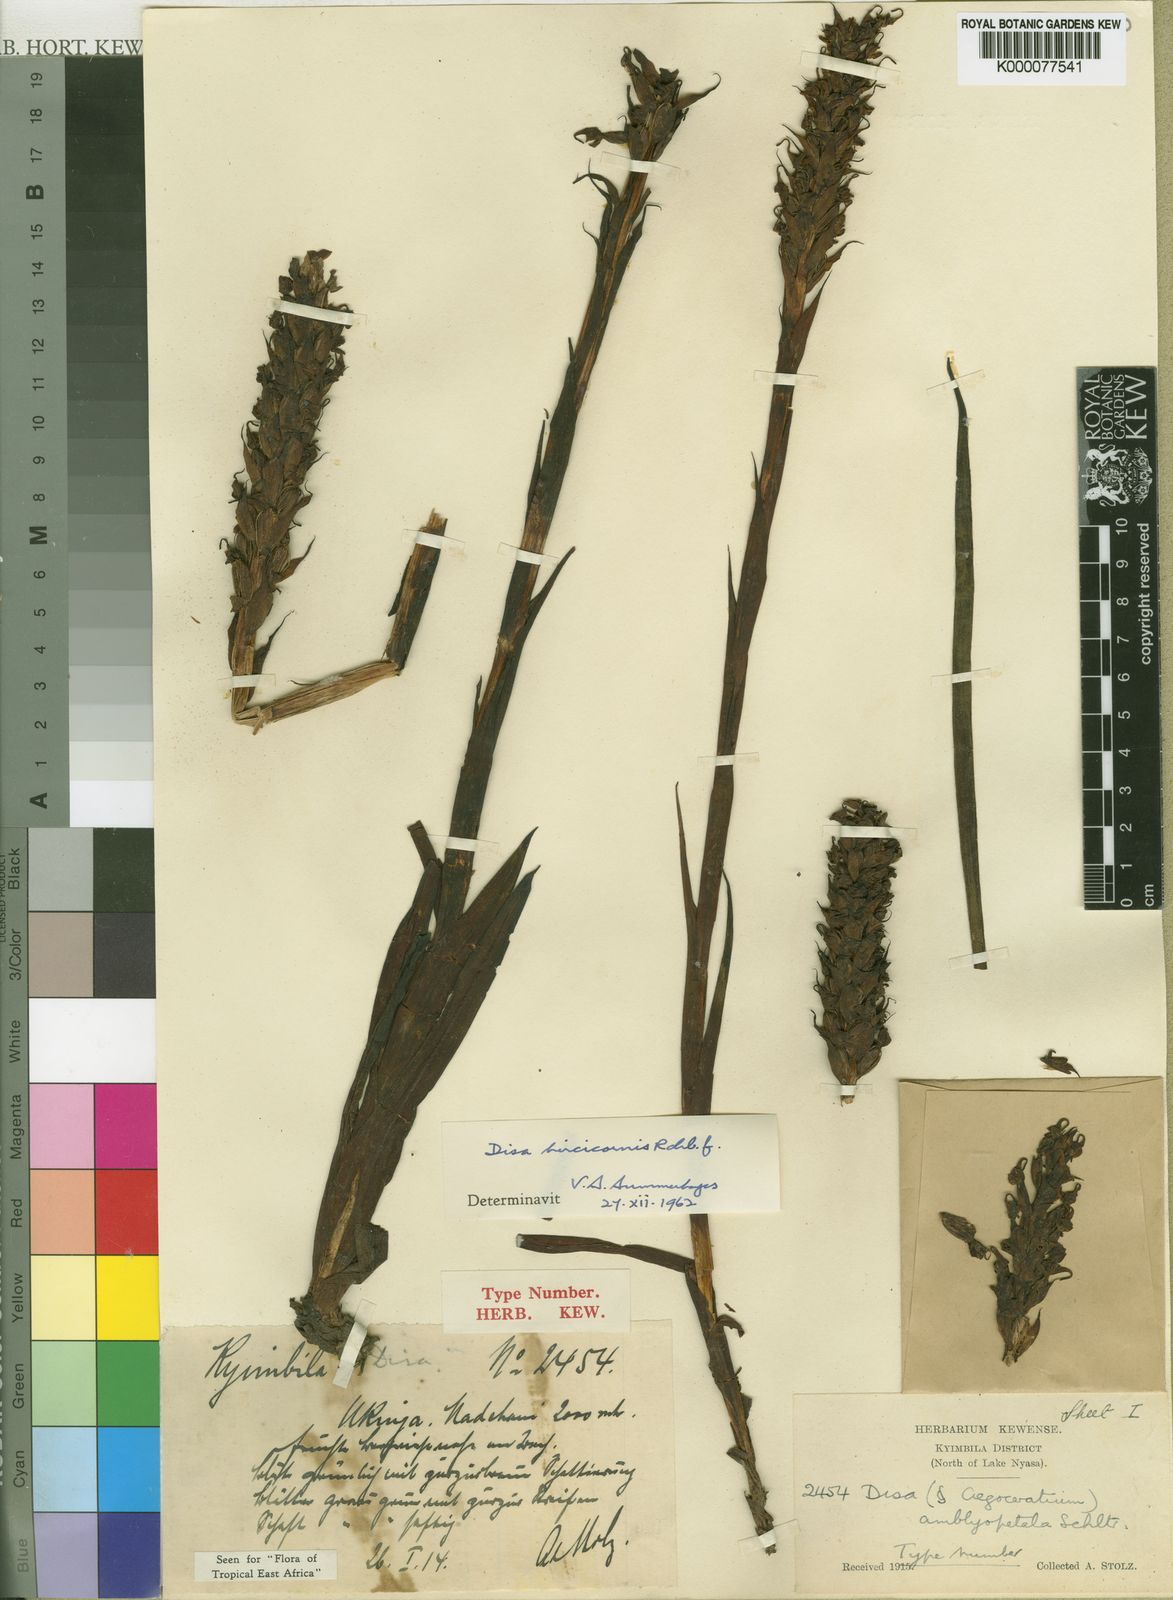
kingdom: Plantae
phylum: Tracheophyta
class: Liliopsida
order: Asparagales
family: Orchidaceae
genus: Disa
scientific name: Disa hircicornis
